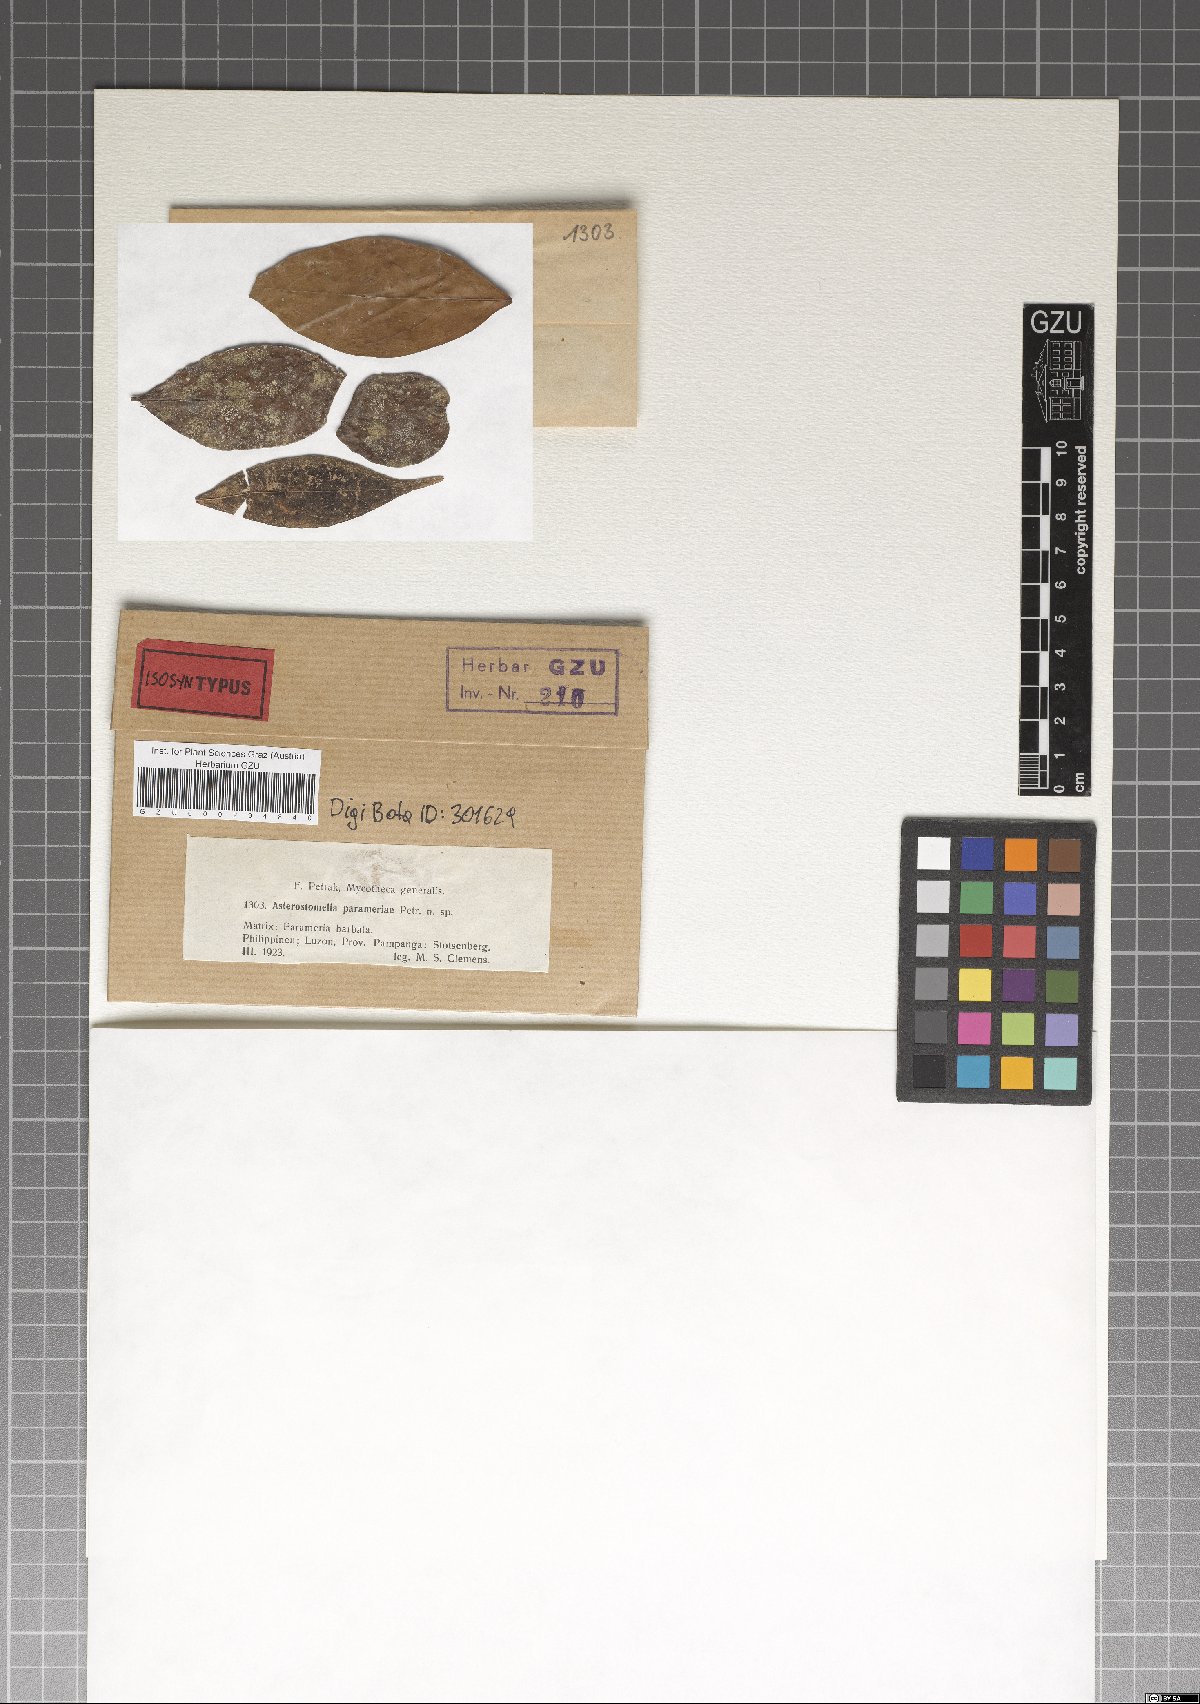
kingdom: Fungi
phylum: Ascomycota
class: Dothideomycetes
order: Asterinales
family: Asterinaceae
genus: Asterostomella
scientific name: Asterostomella parameriae
